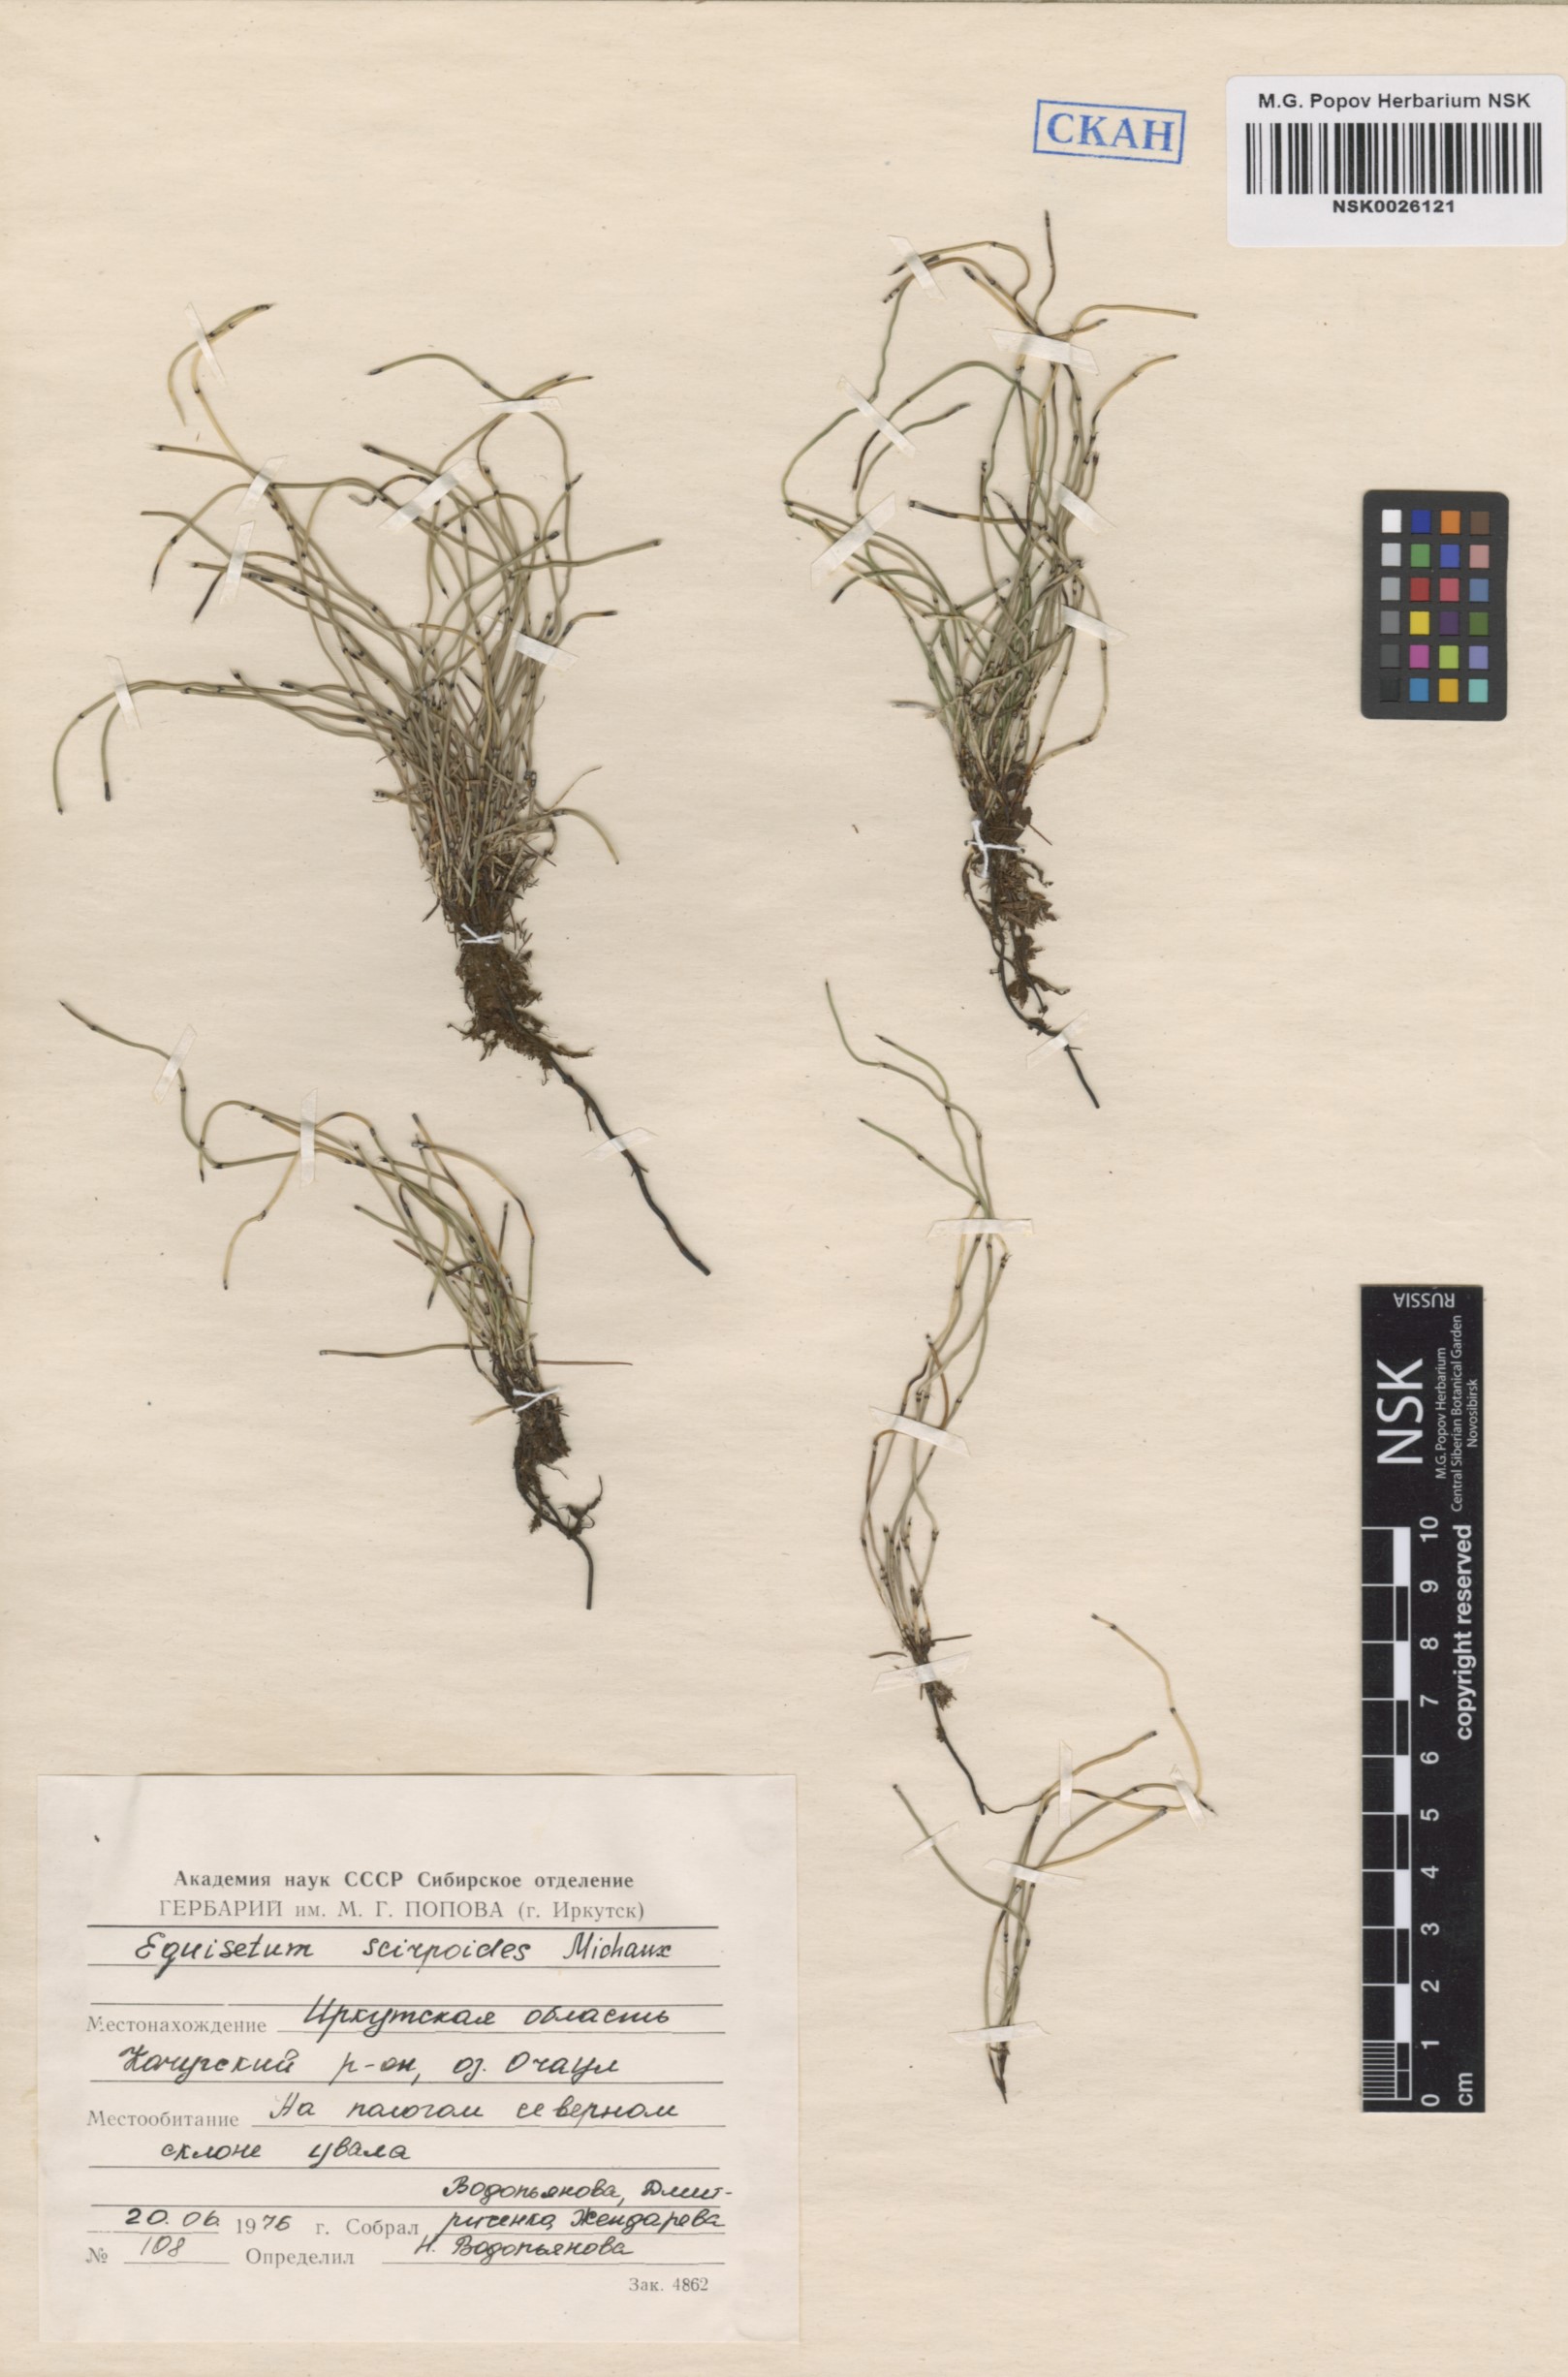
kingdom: Plantae
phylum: Tracheophyta
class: Polypodiopsida
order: Equisetales
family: Equisetaceae
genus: Equisetum
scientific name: Equisetum scirpoides
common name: Delicate horsetail
